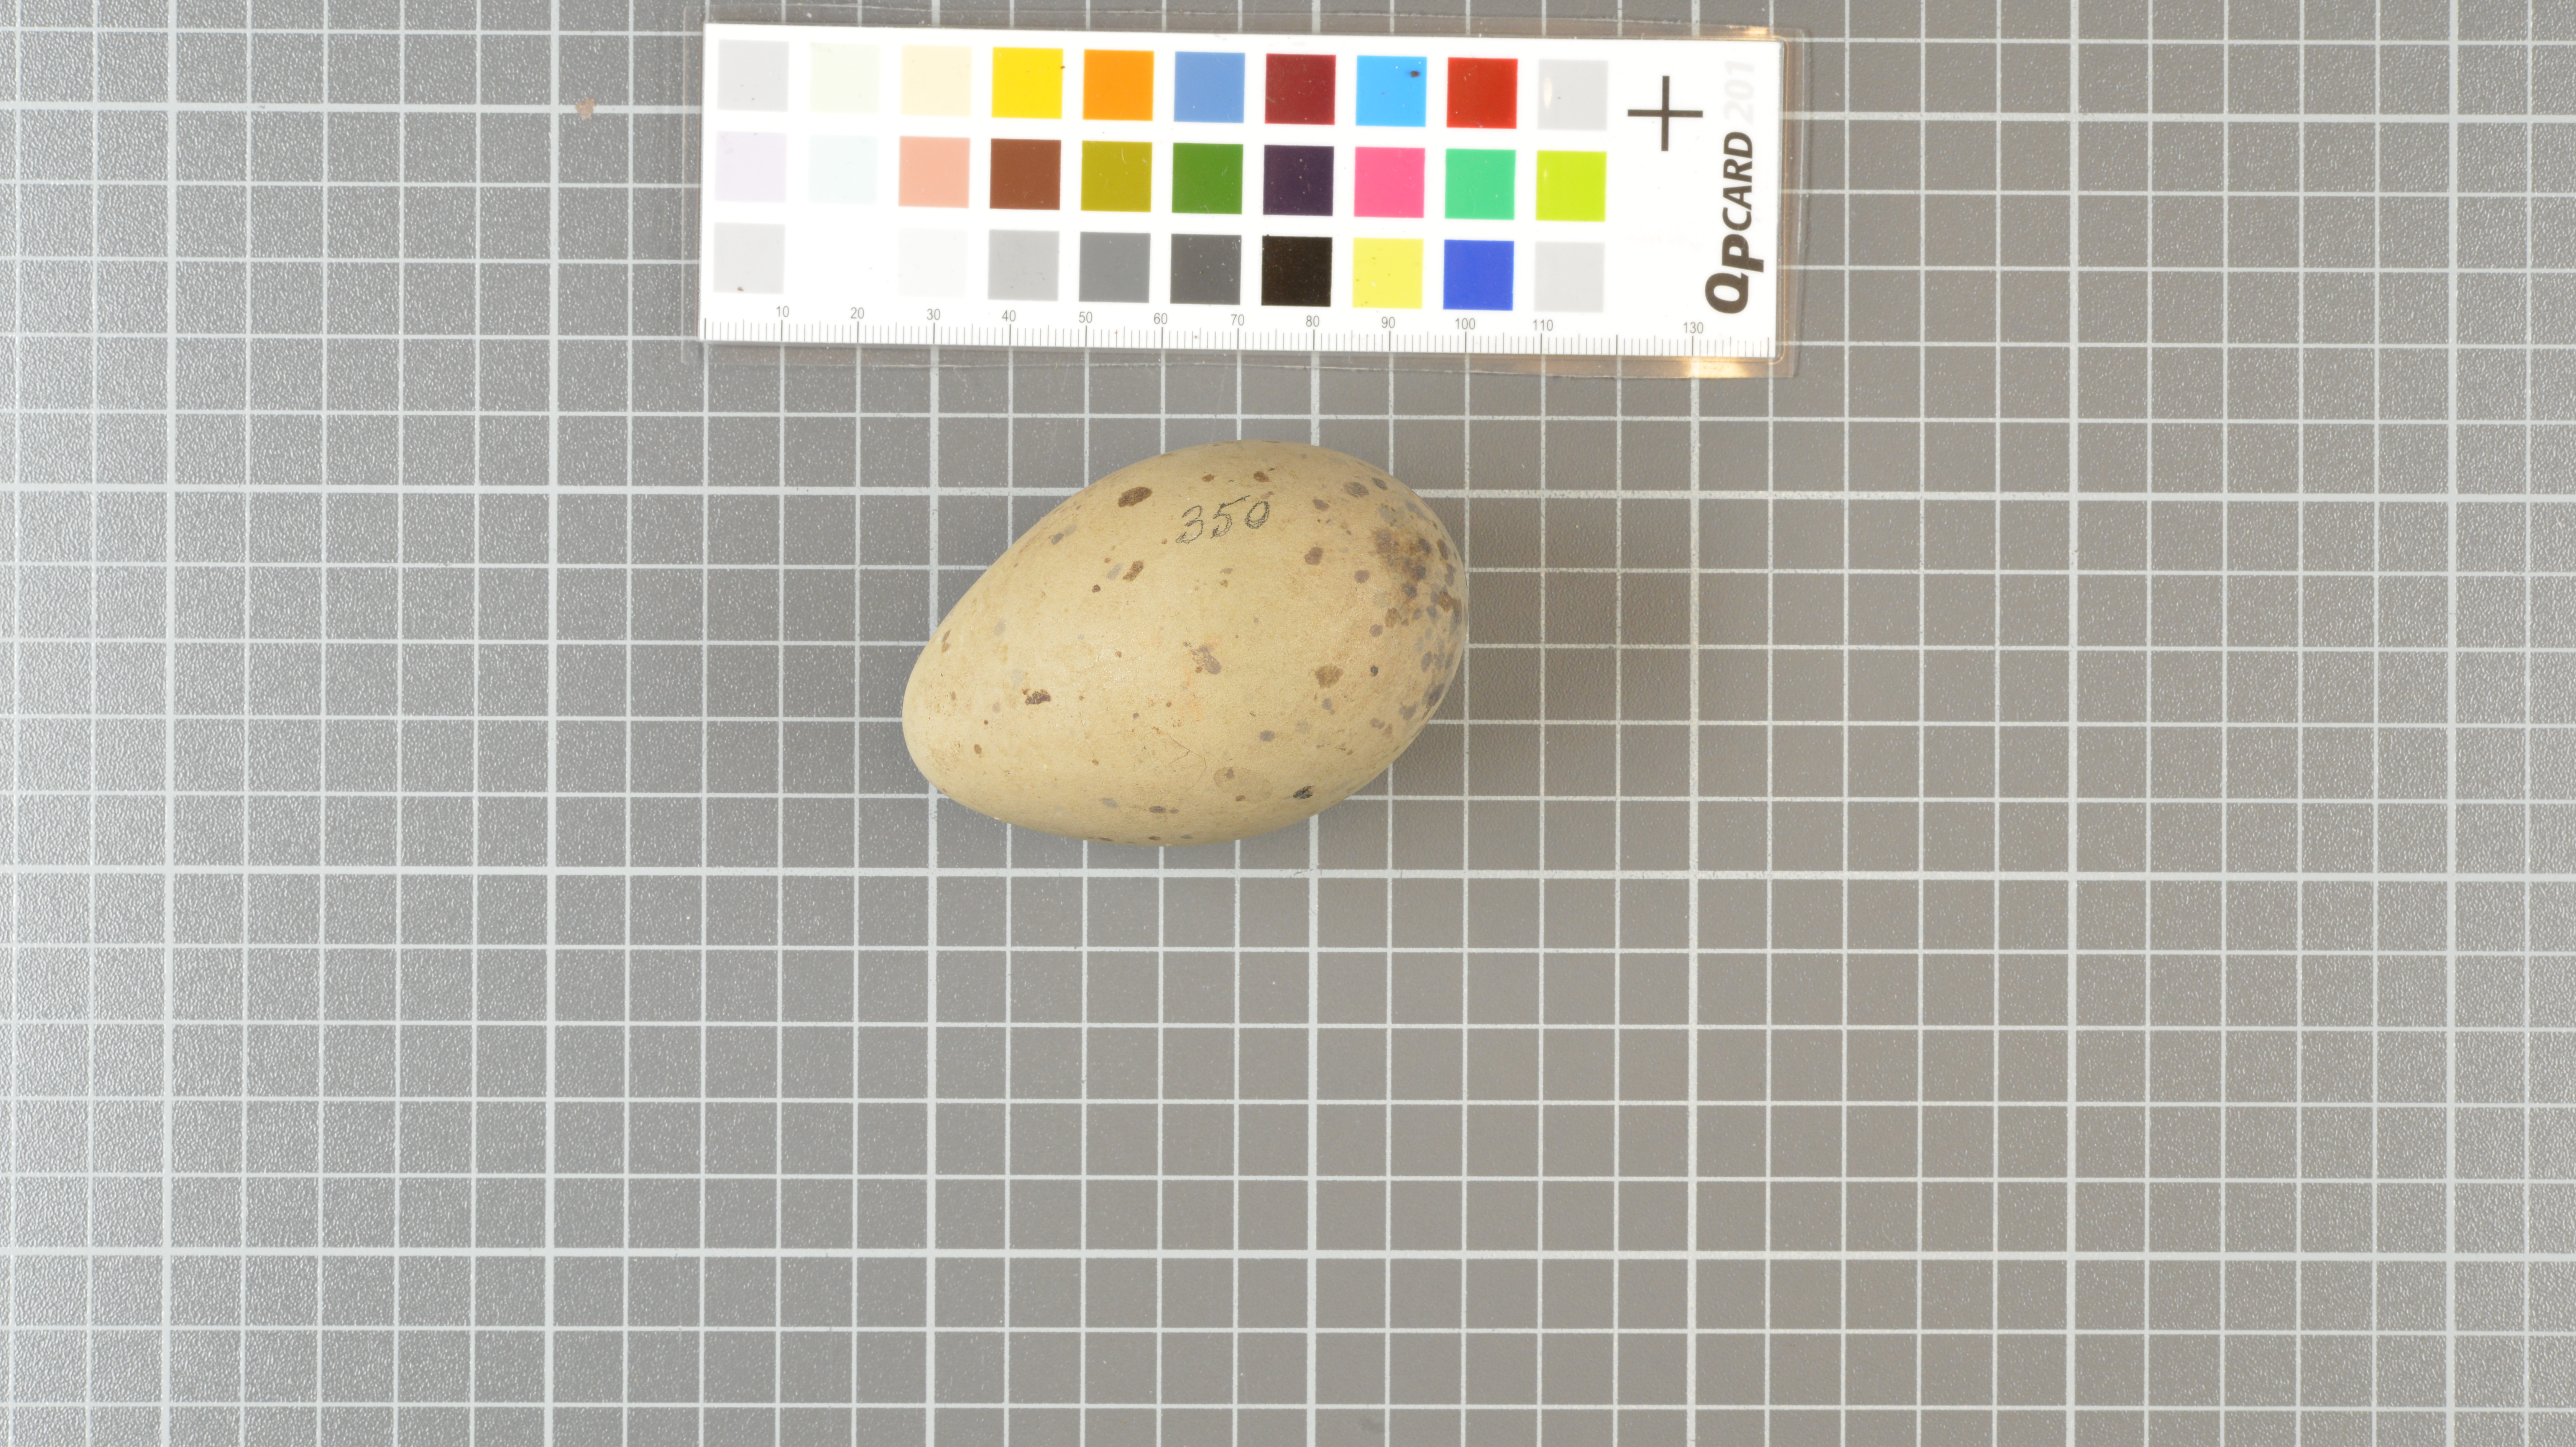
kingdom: Animalia
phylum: Chordata
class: Aves
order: Charadriiformes
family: Stercorariidae
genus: Stercorarius
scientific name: Stercorarius antarcticus
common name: Brown skua
